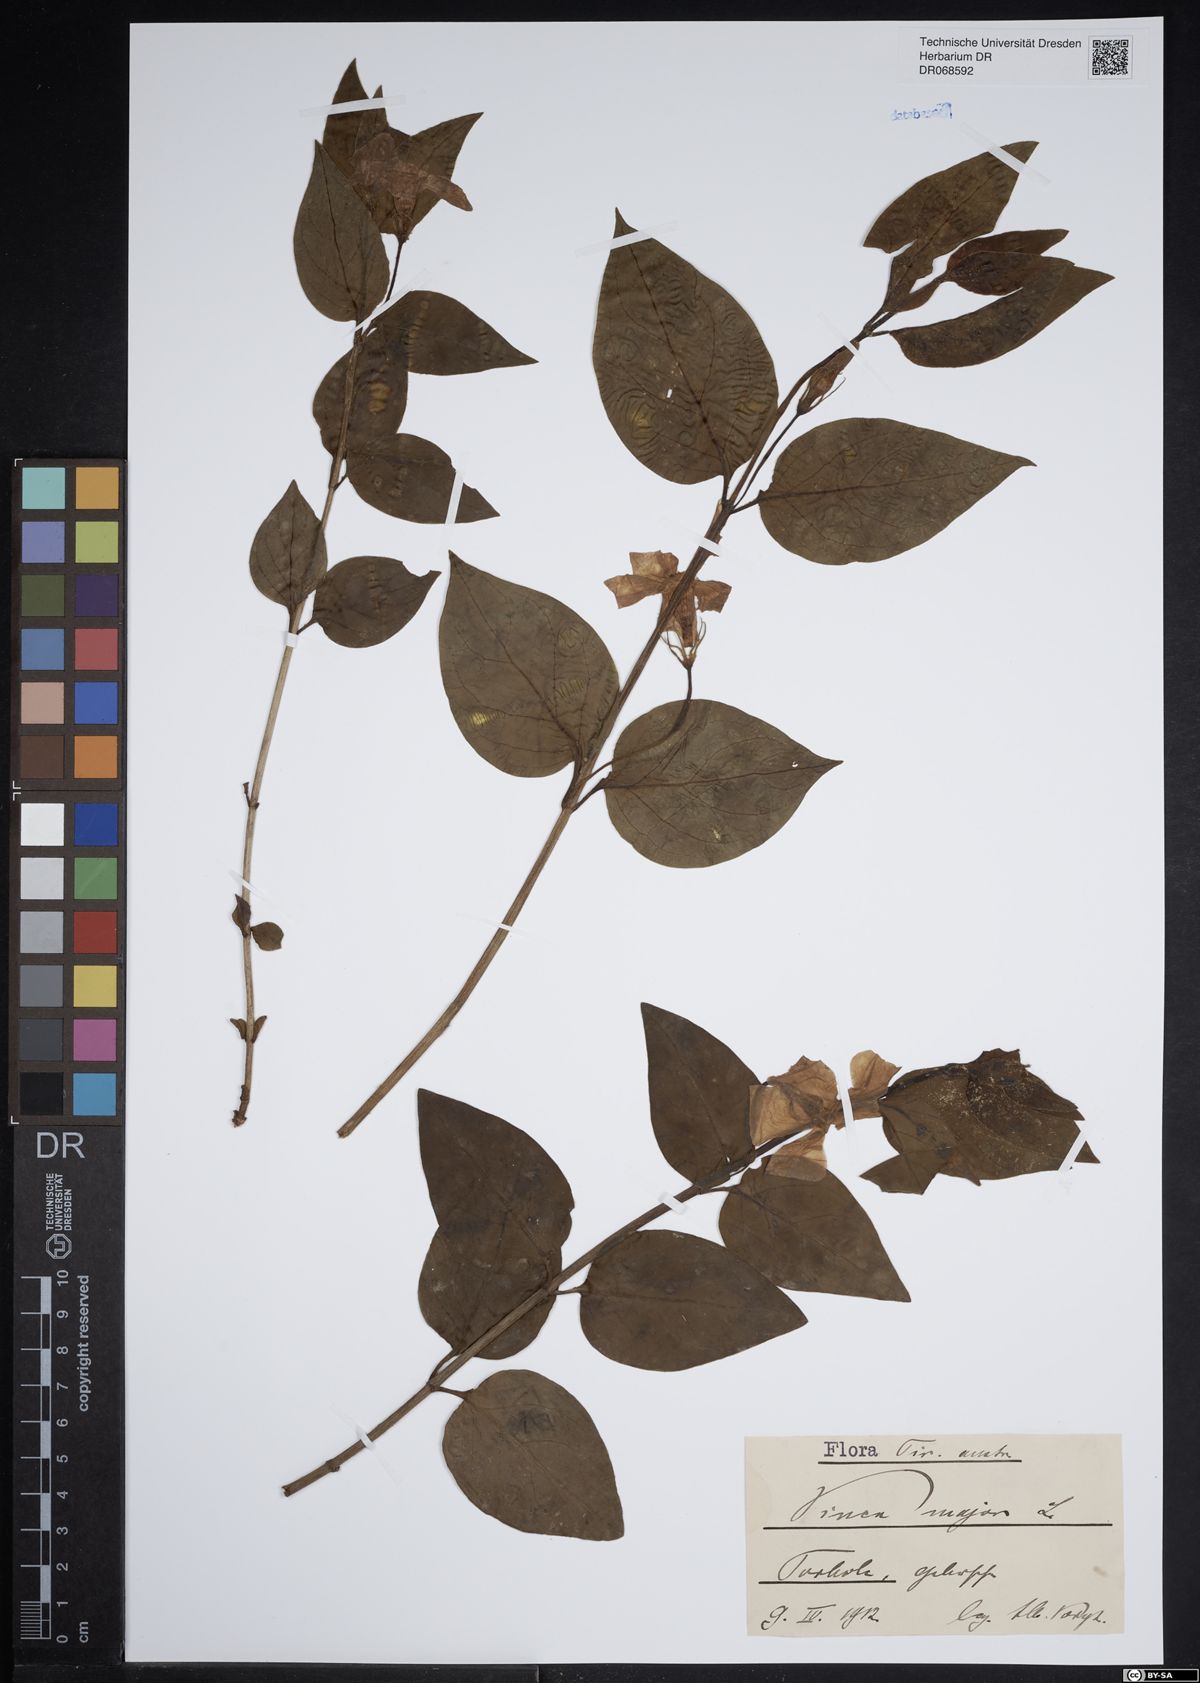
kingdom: Plantae
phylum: Tracheophyta
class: Magnoliopsida
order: Gentianales
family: Apocynaceae
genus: Vinca
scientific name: Vinca major
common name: Greater periwinkle
